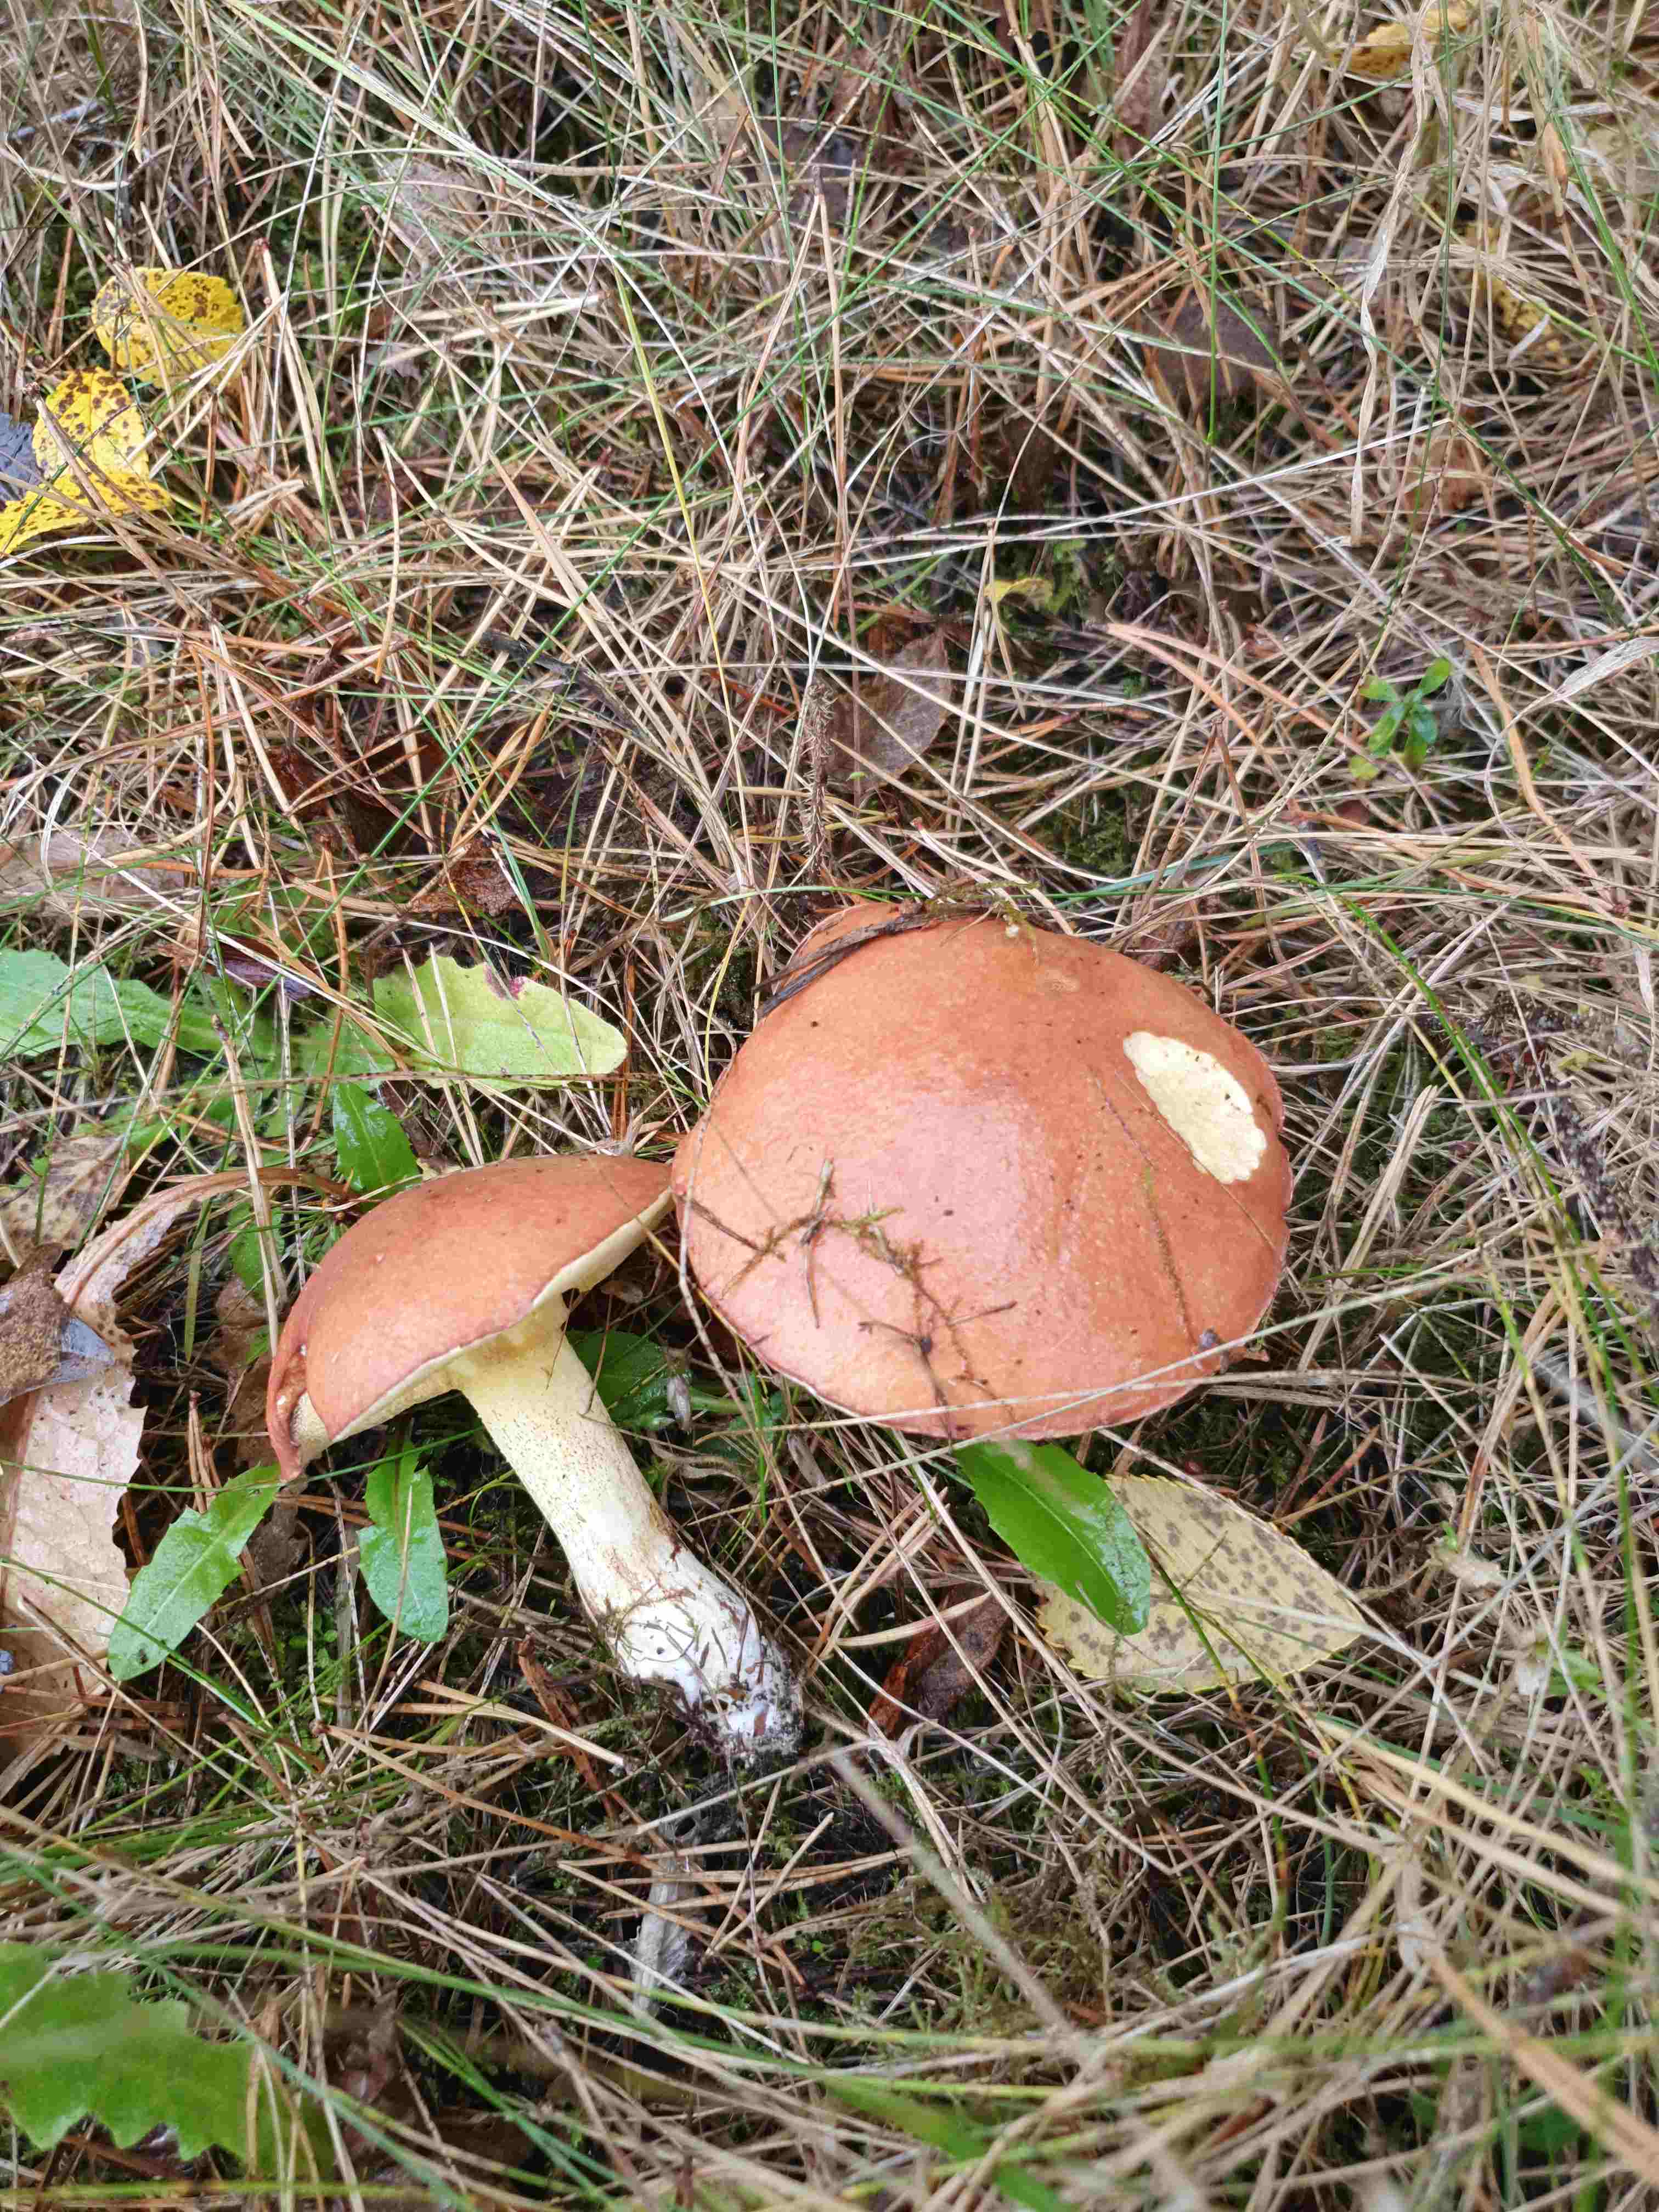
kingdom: Fungi
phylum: Basidiomycota
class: Agaricomycetes
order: Boletales
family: Suillaceae
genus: Suillus
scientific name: Suillus granulatus
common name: kornet slimrørhat
